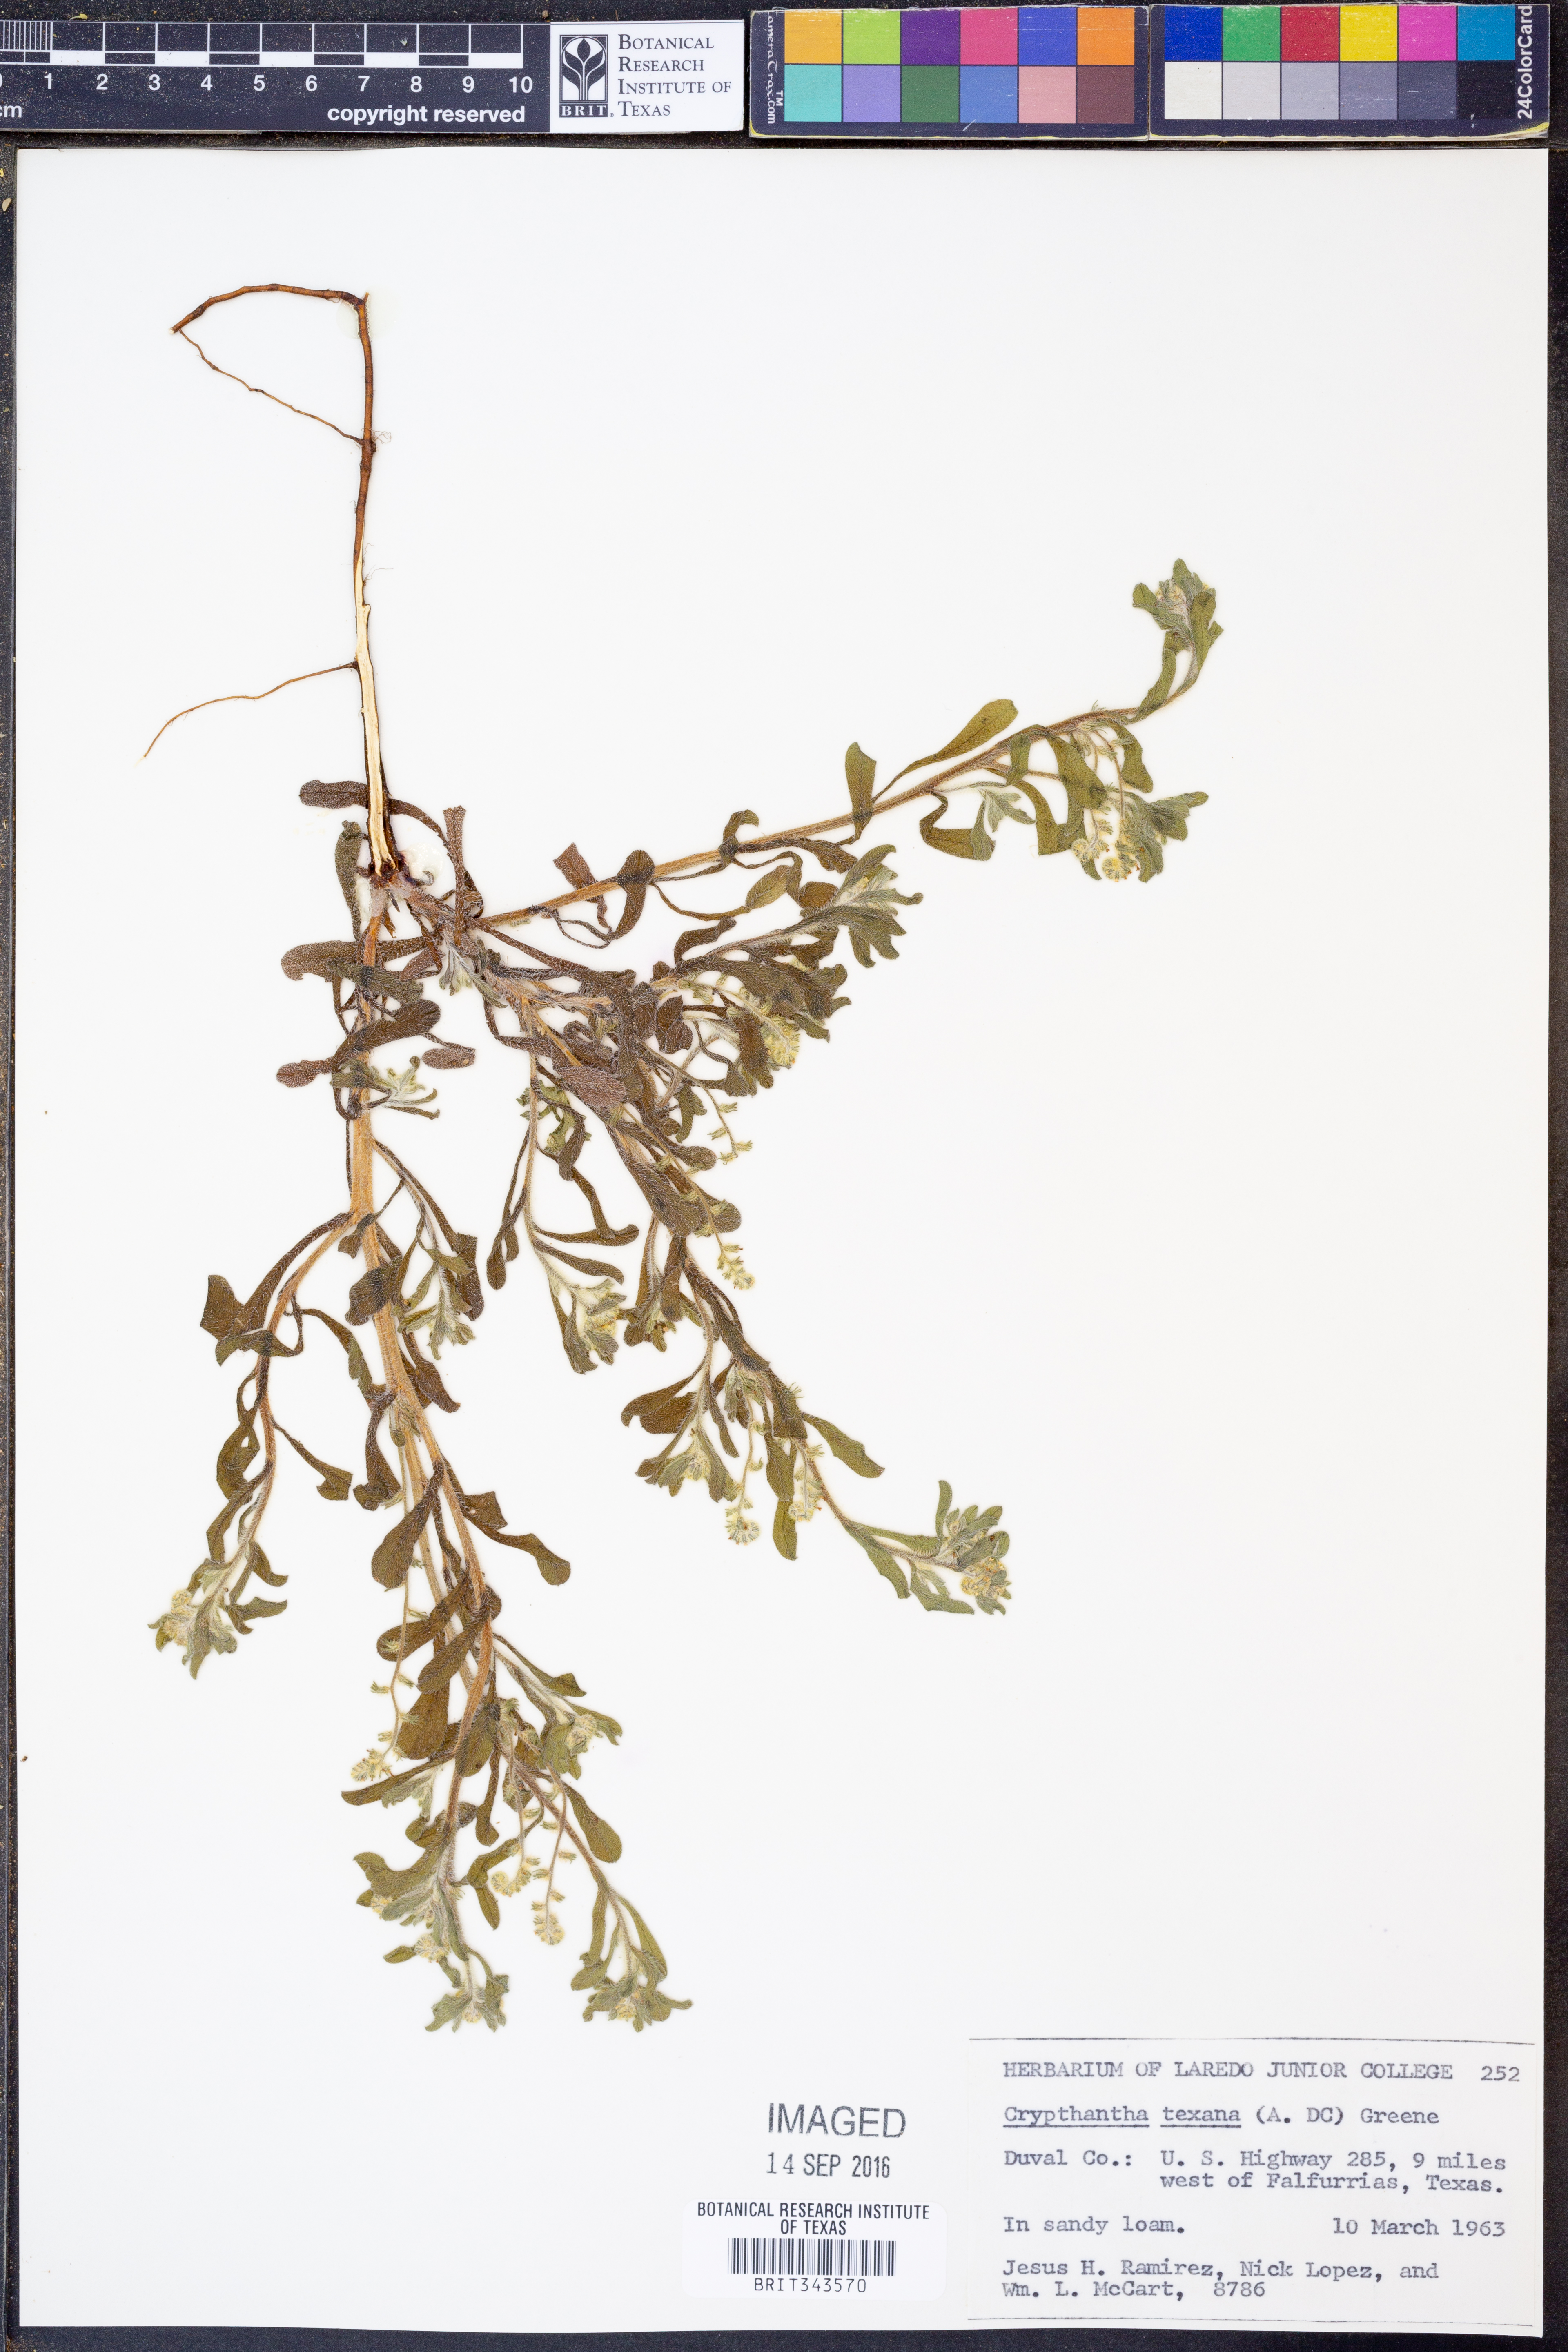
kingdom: Plantae
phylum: Tracheophyta
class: Magnoliopsida
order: Boraginales
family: Boraginaceae
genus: Cryptantha
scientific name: Cryptantha texana
